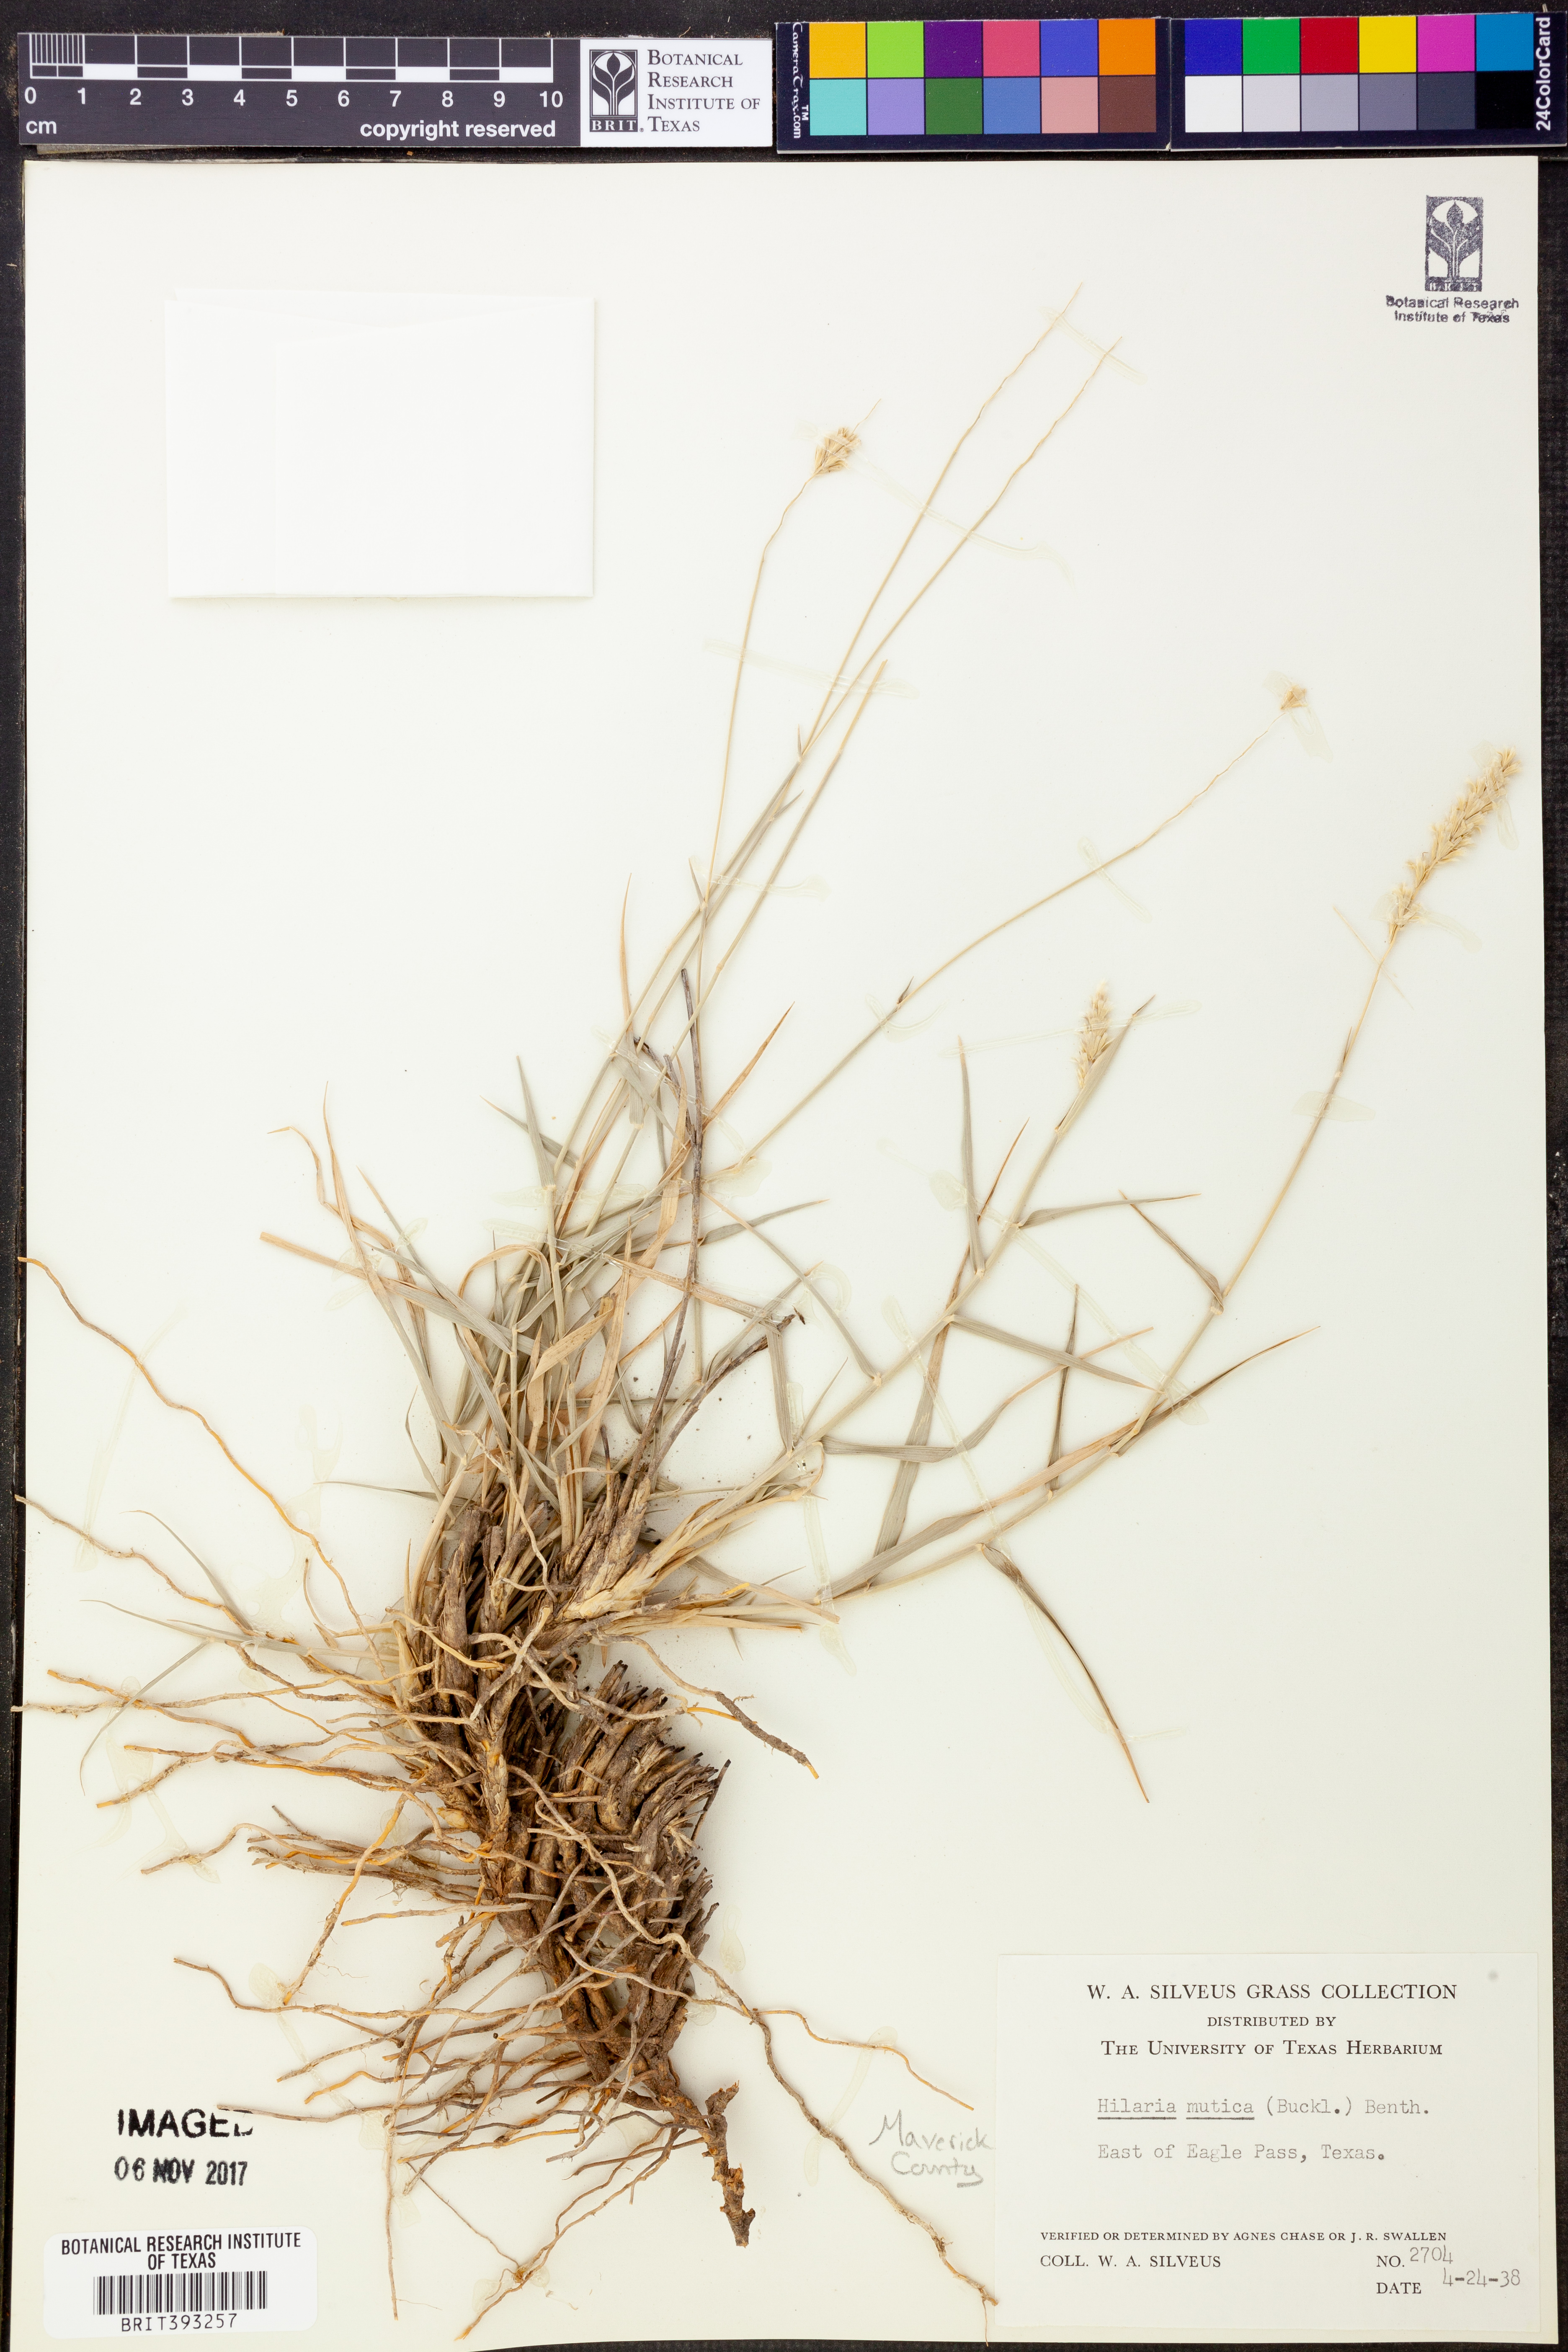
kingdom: Plantae
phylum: Tracheophyta
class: Liliopsida
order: Poales
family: Poaceae
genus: Hilaria
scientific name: Hilaria mutica
